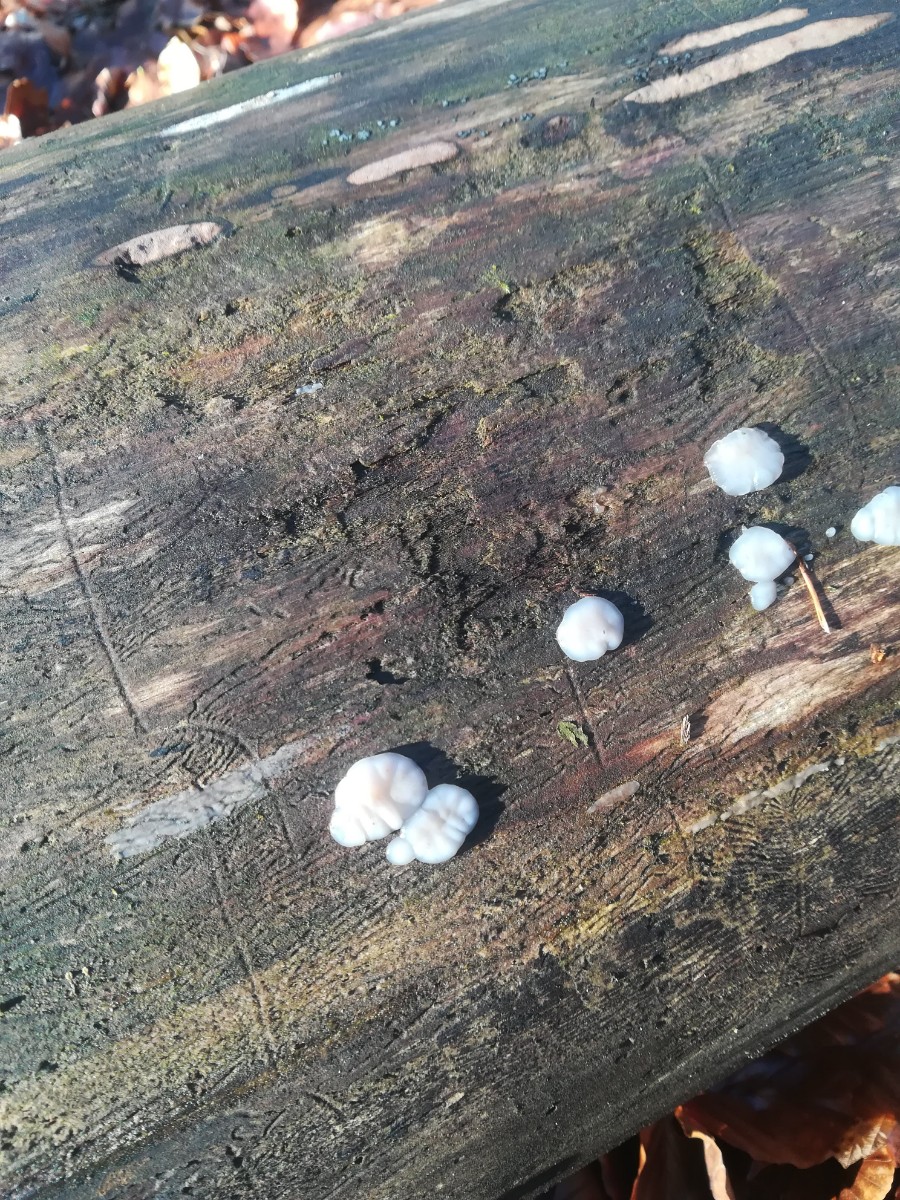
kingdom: Fungi
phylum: Basidiomycota
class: Agaricomycetes
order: Auriculariales
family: Auriculariaceae
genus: Exidia
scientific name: Exidia thuretiana
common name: hvidlig bævretop
